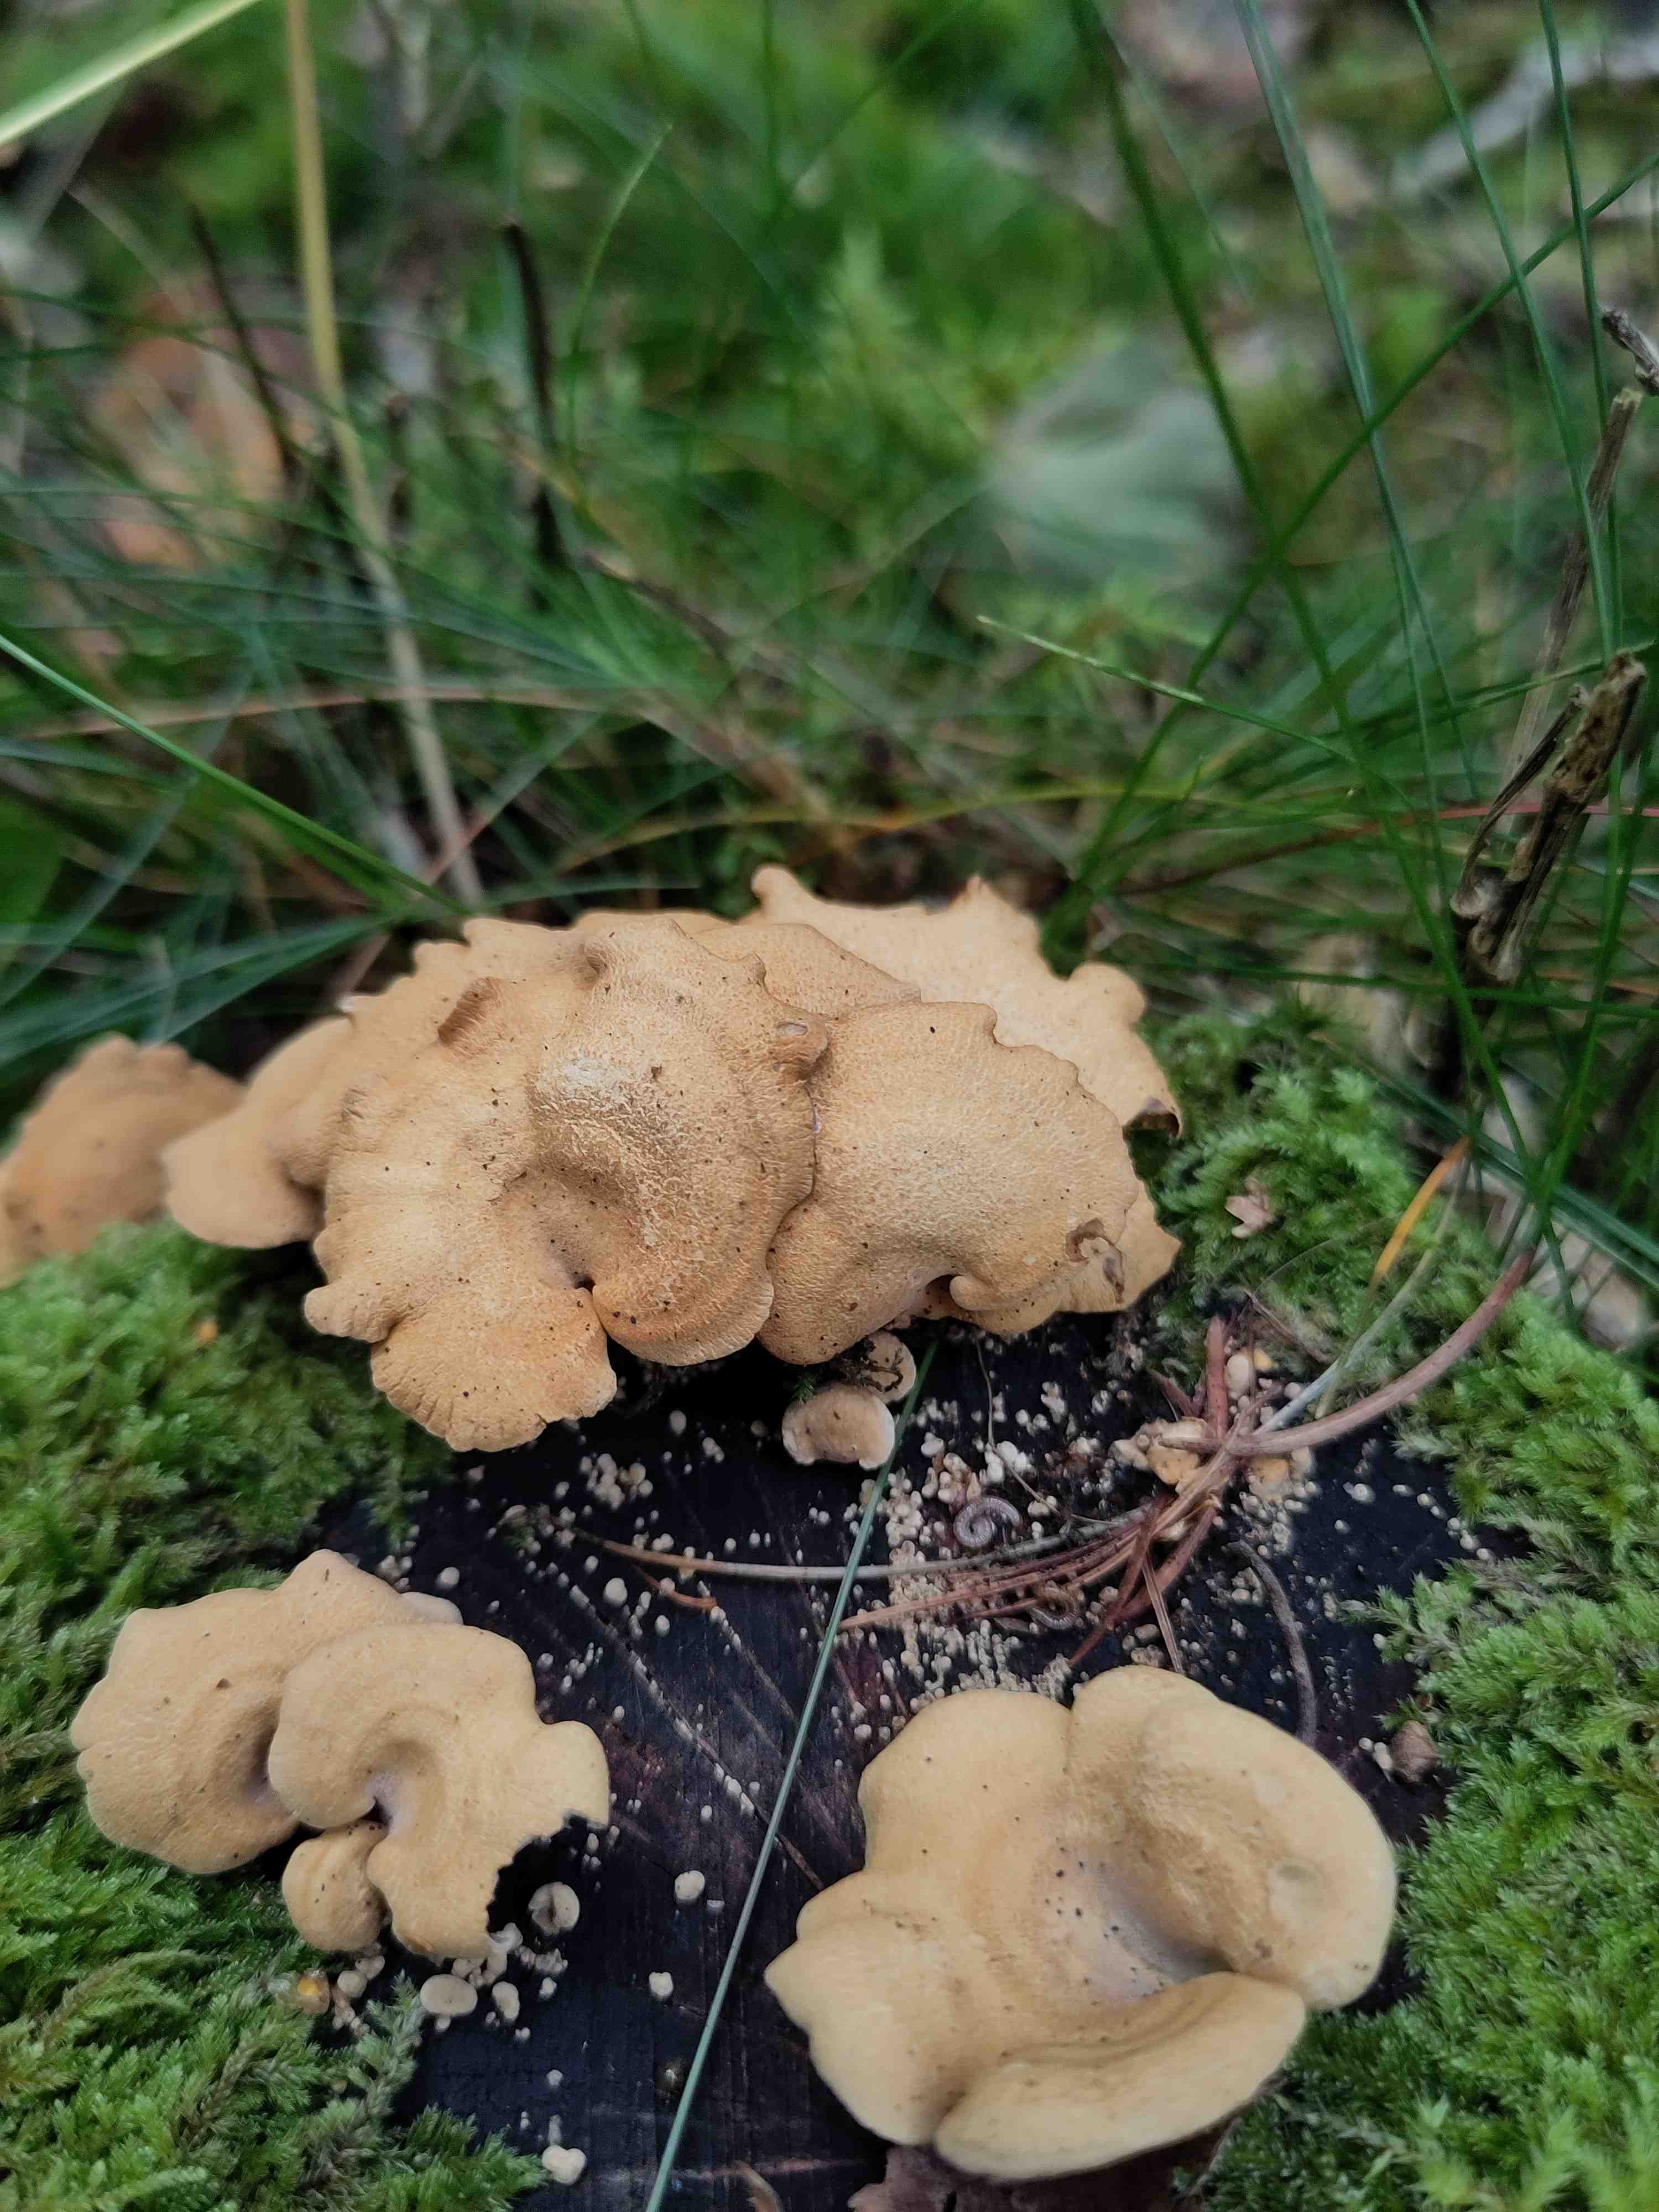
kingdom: Fungi
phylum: Basidiomycota
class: Agaricomycetes
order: Agaricales
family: Mycenaceae
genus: Panellus
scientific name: Panellus stipticus
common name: kliddet epaulethat
